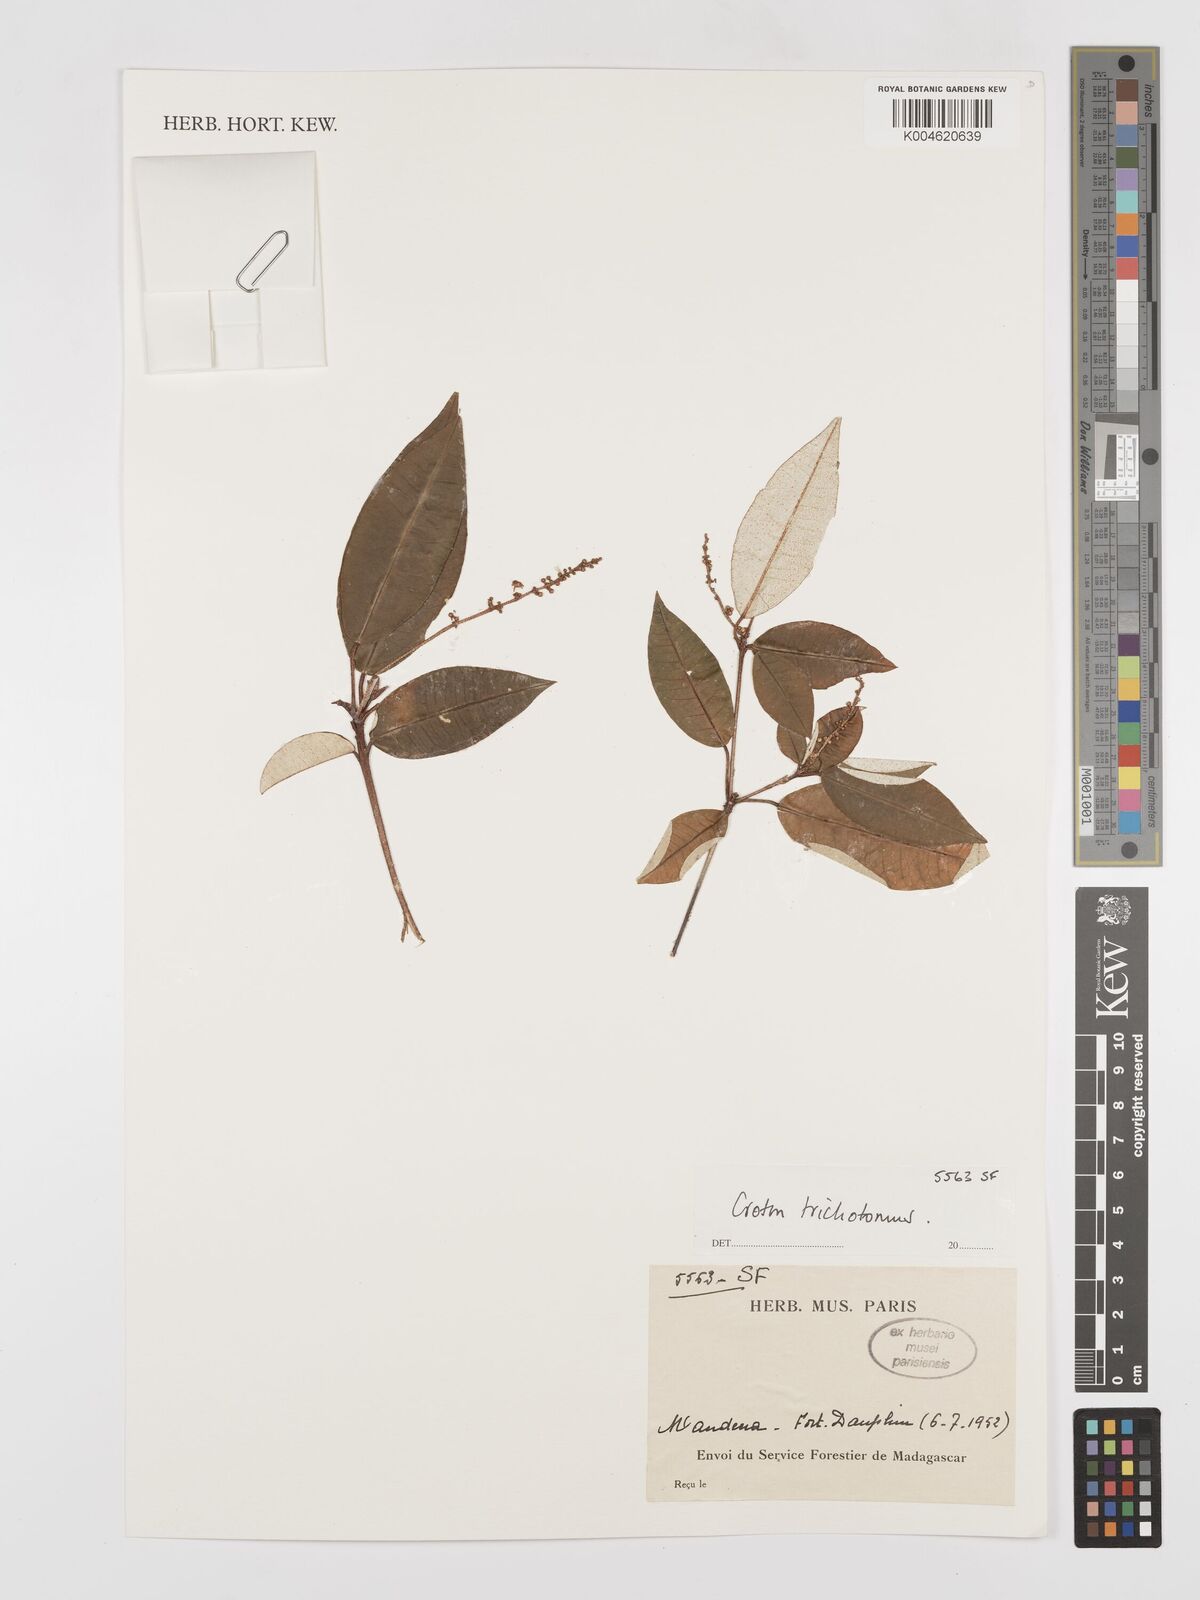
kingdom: Plantae
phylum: Tracheophyta
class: Magnoliopsida
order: Malpighiales
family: Euphorbiaceae
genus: Croton
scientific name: Croton trichotomus
